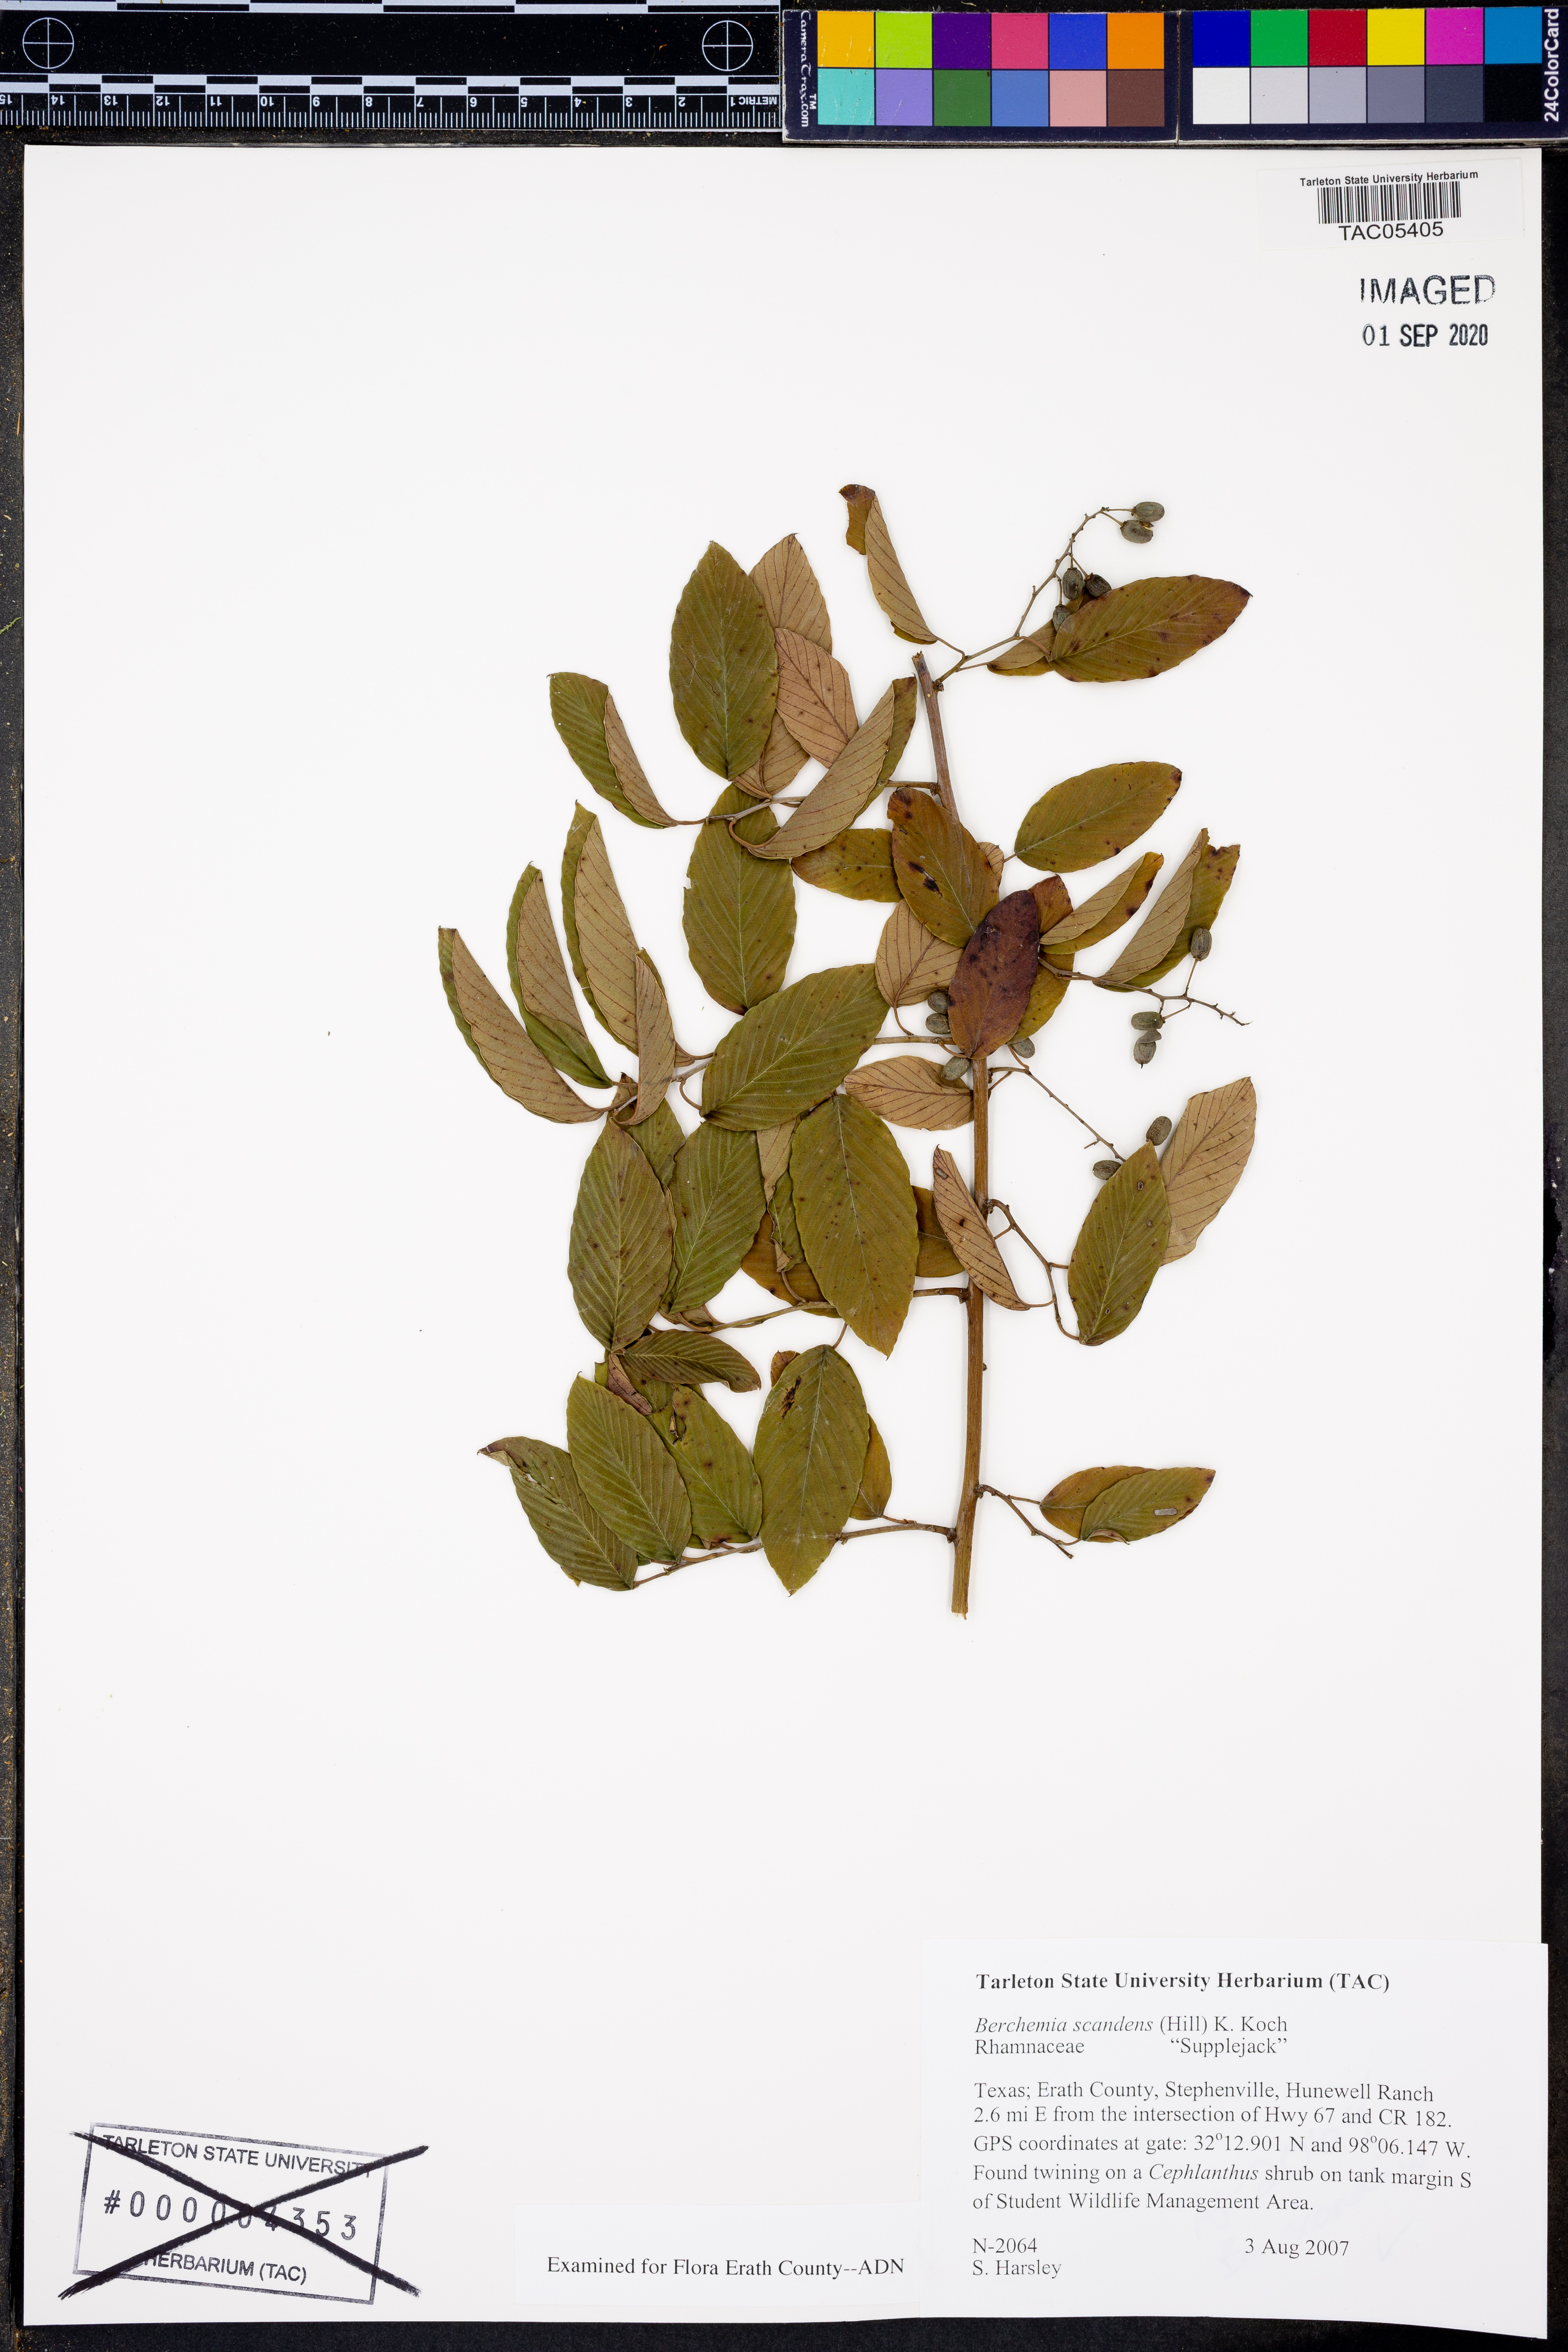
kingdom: Plantae
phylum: Tracheophyta
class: Magnoliopsida
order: Rosales
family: Rhamnaceae
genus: Berchemia
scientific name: Berchemia scandens
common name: Supplejack
